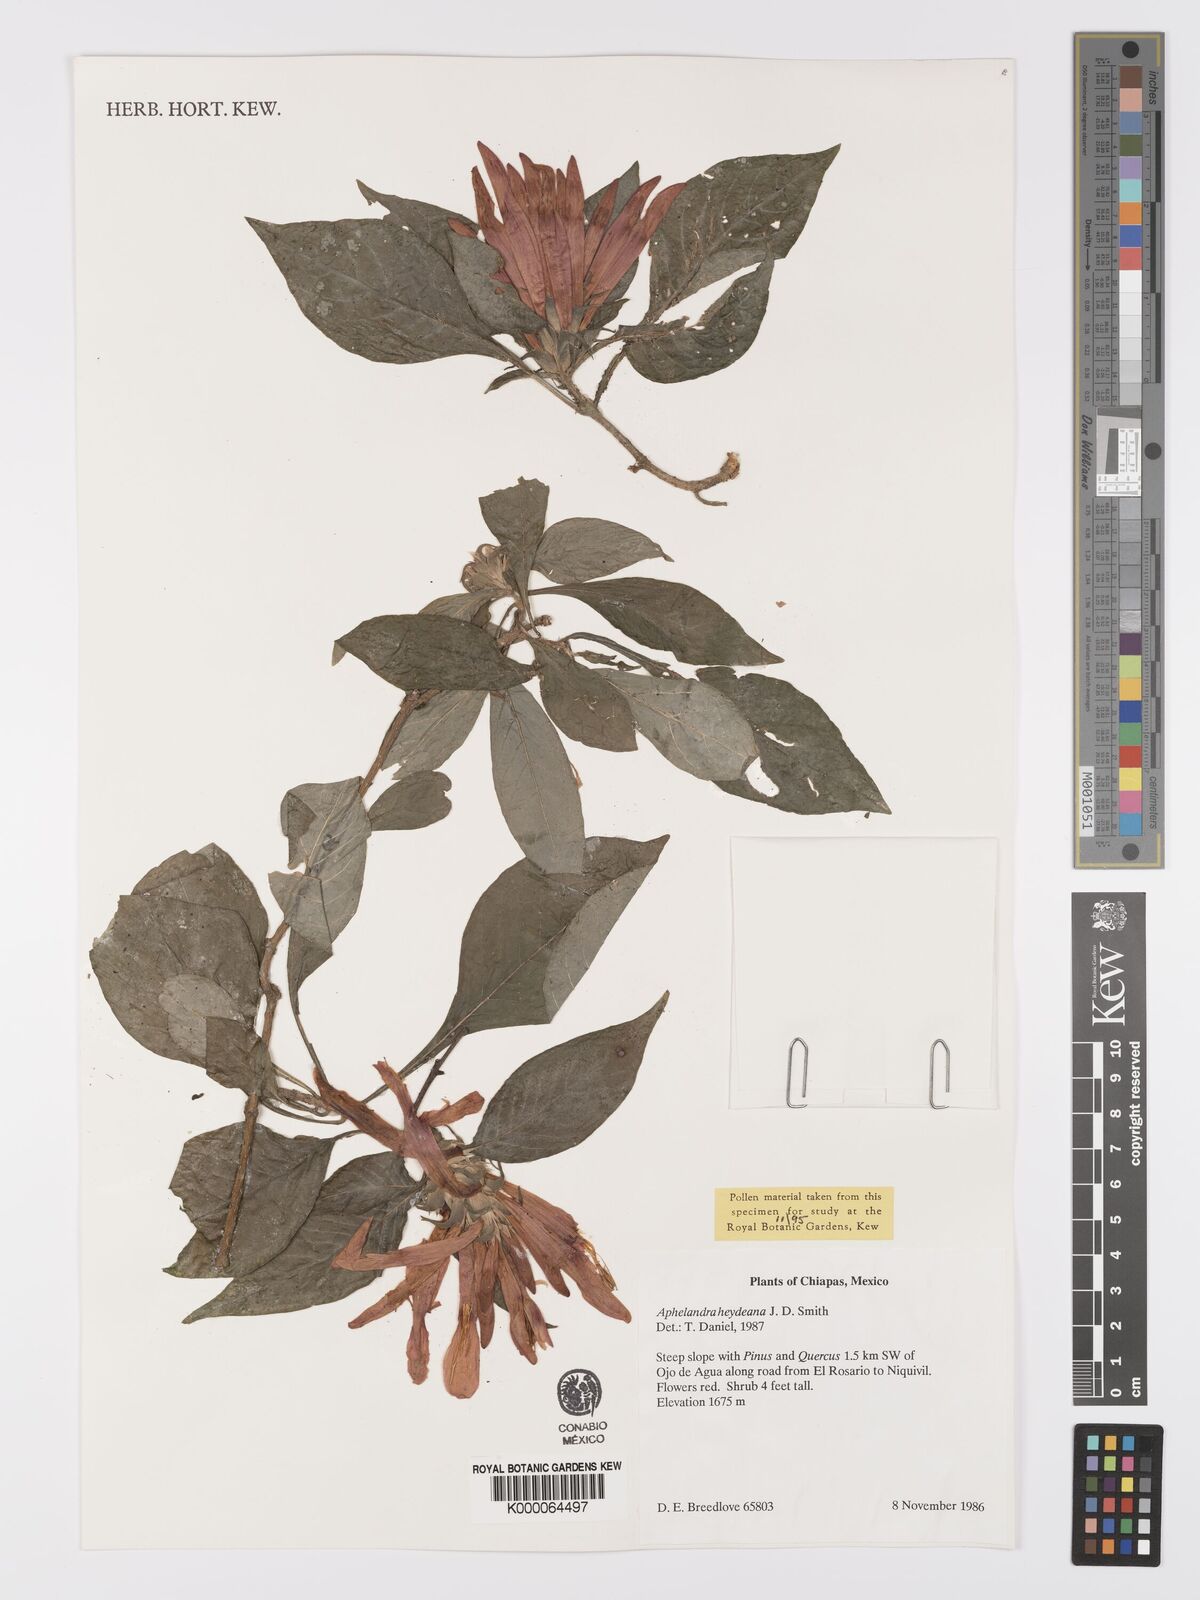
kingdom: Plantae
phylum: Tracheophyta
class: Magnoliopsida
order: Lamiales
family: Acanthaceae
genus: Aphelandra
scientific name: Aphelandra guerrerensis
